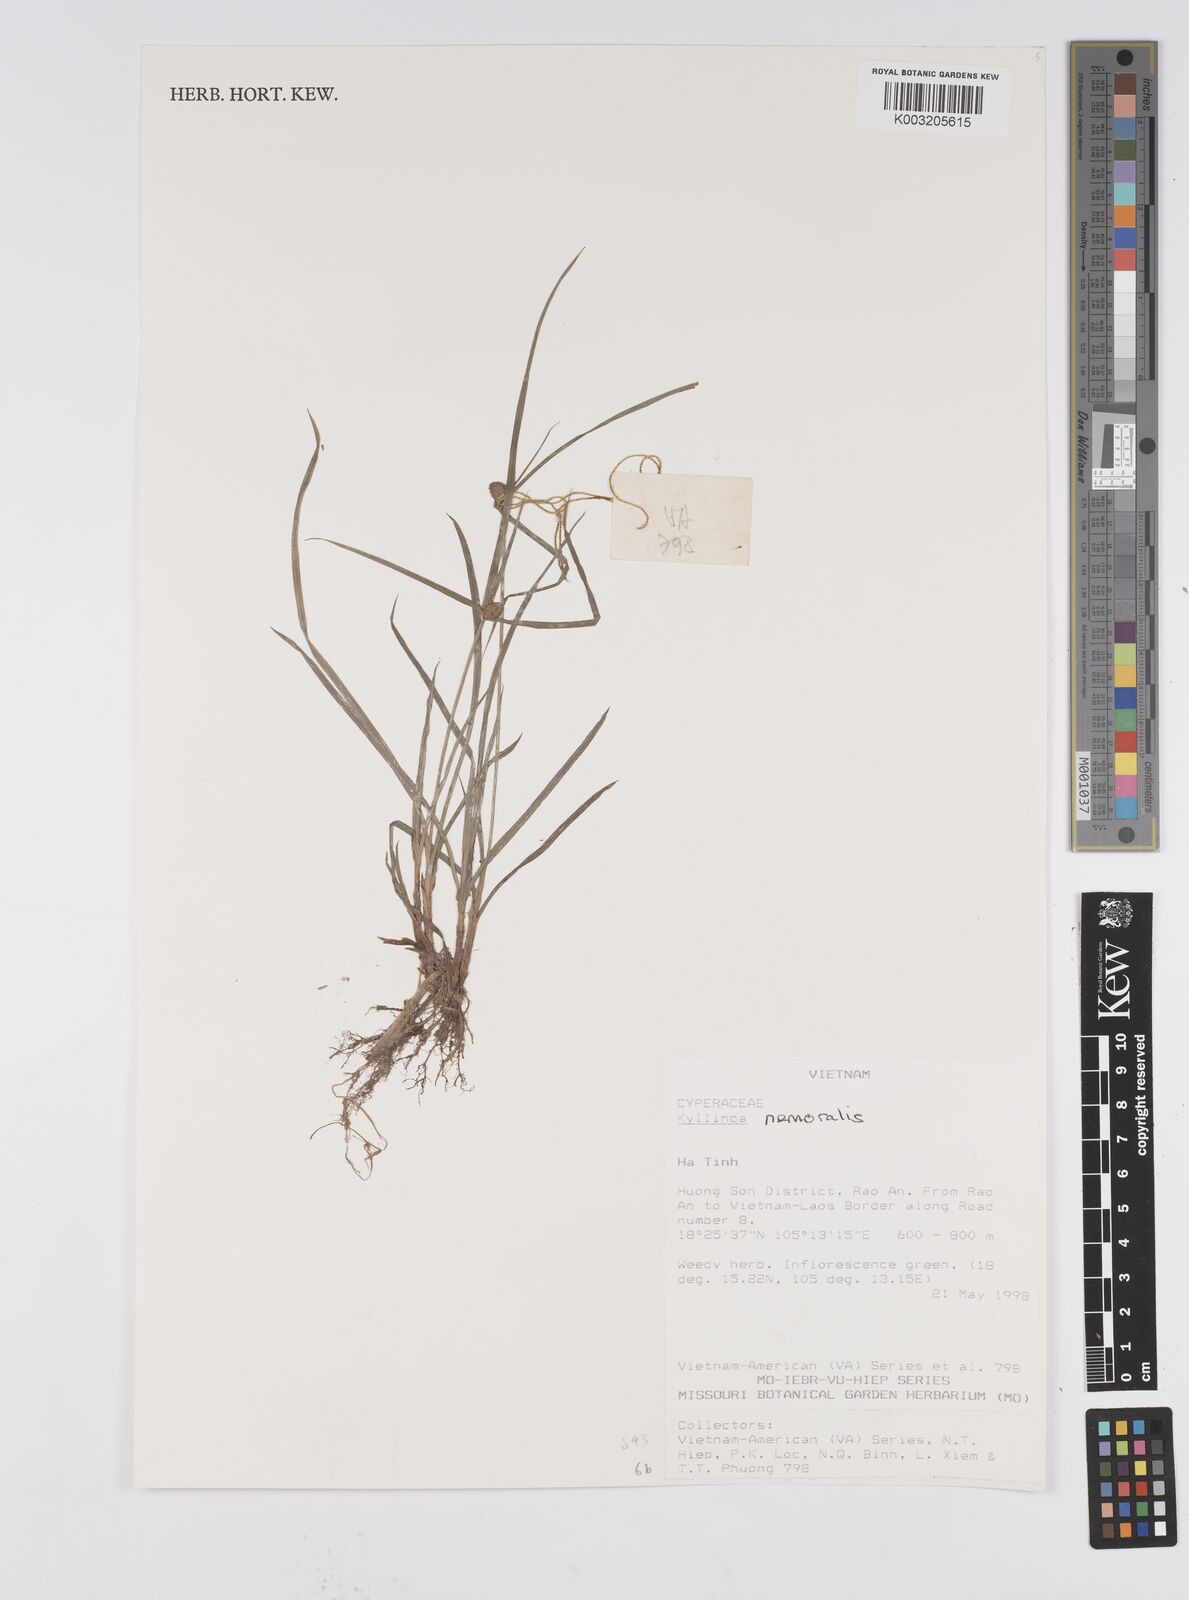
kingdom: Plantae
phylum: Tracheophyta
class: Liliopsida
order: Poales
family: Cyperaceae
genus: Cyperus
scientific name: Cyperus
